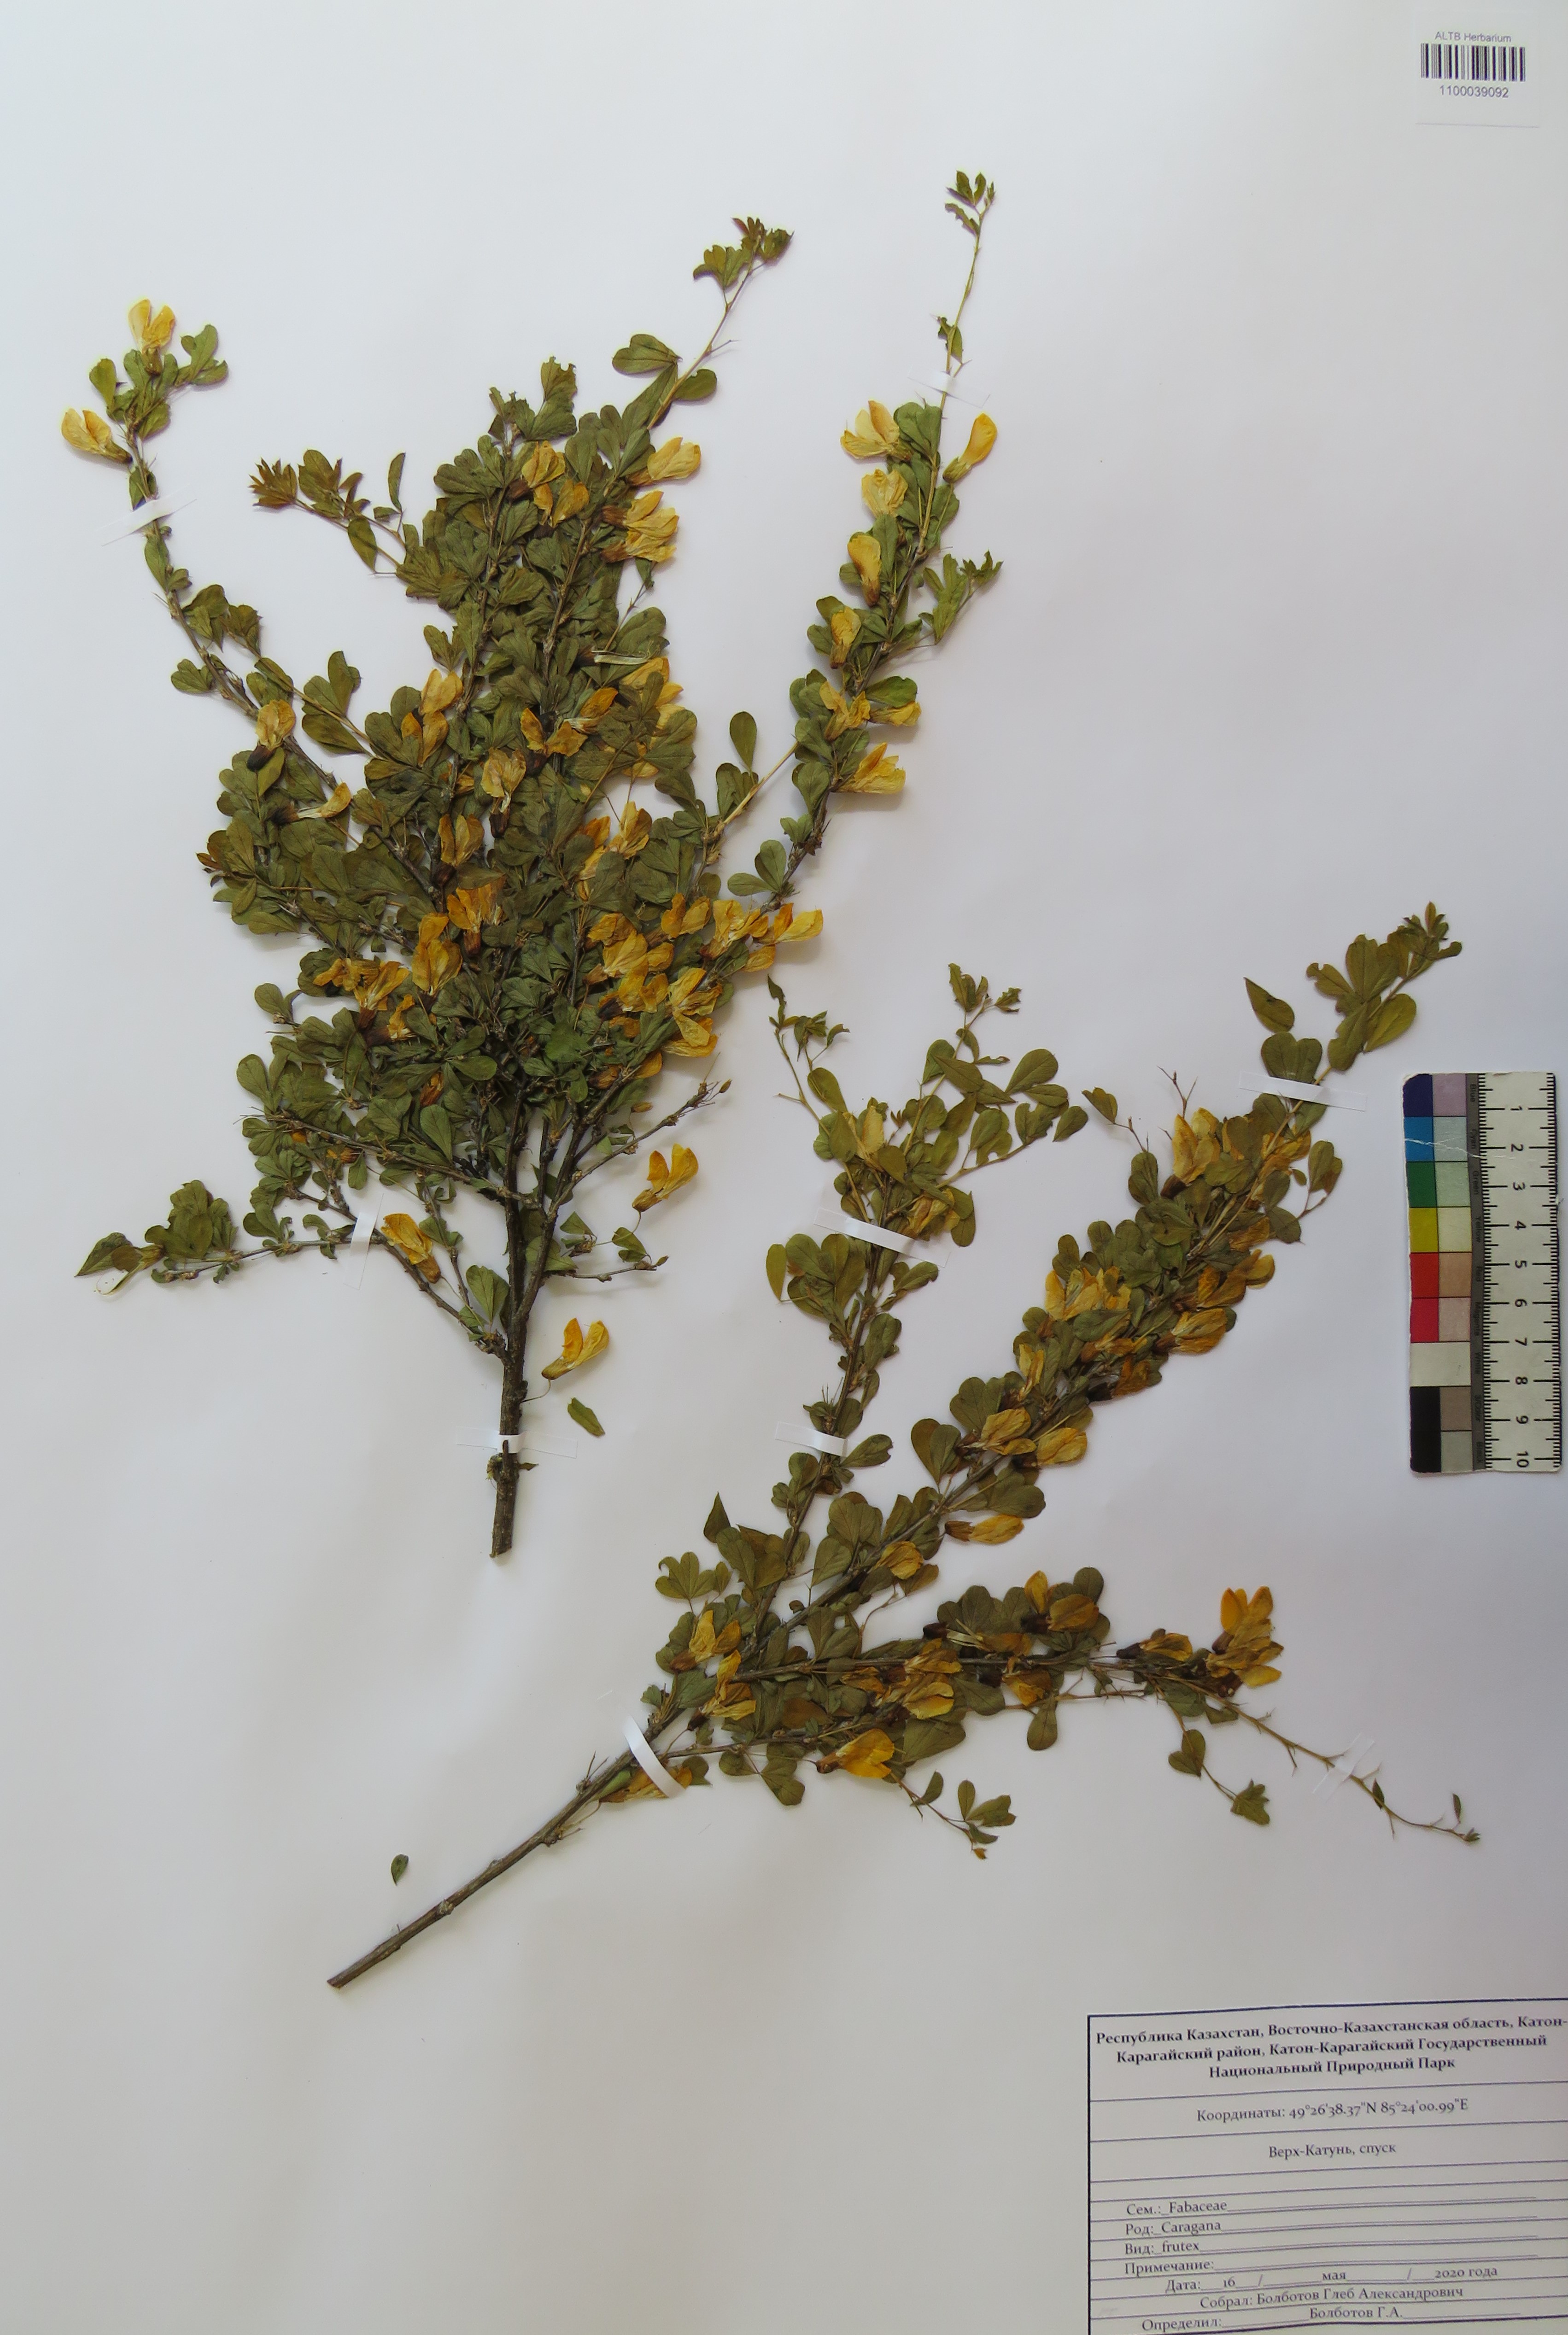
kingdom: Plantae
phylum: Tracheophyta
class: Magnoliopsida
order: Fabales
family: Fabaceae
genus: Caragana
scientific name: Caragana frutex
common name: Russian peashrub
